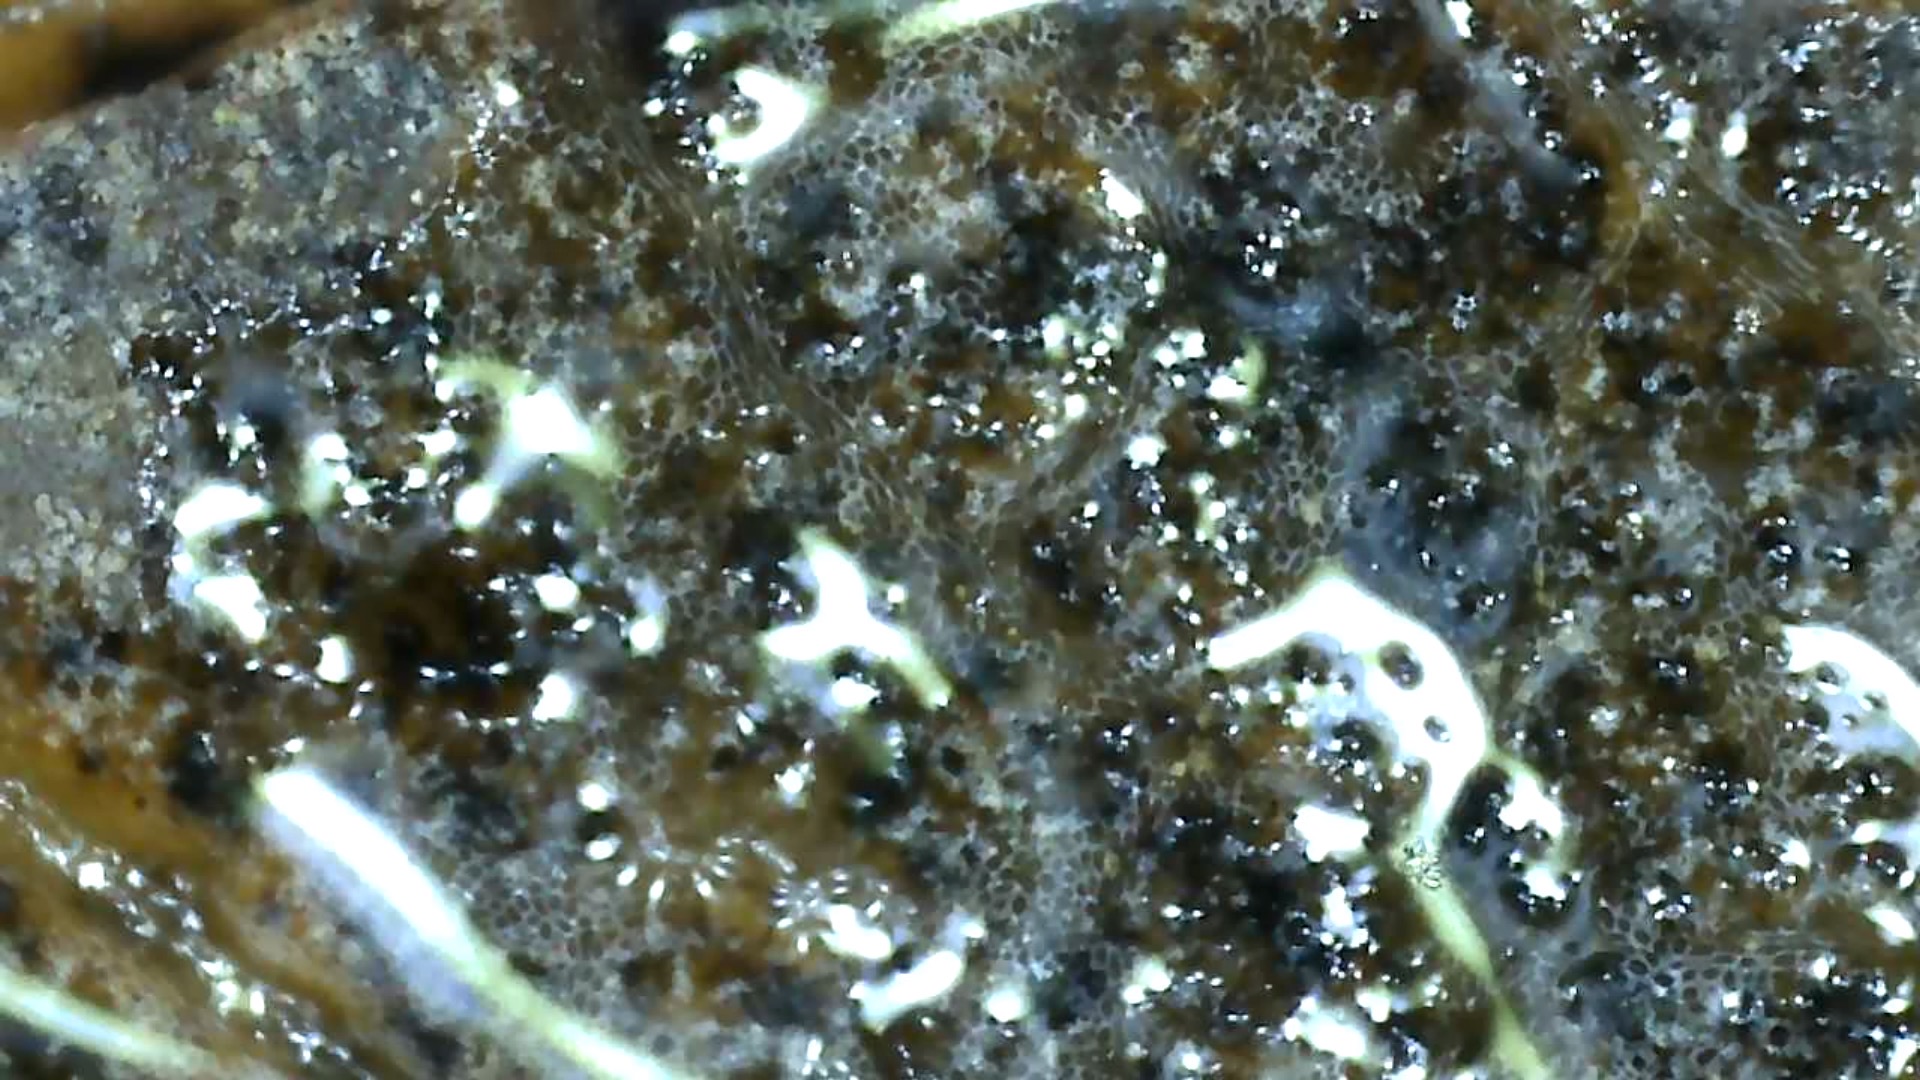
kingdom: Fungi
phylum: Ascomycota
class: Leotiomycetes
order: Rhytismatales
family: Rhytismataceae
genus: Rhytisma
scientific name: Rhytisma acerinum
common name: ahorn-rynkeplet
